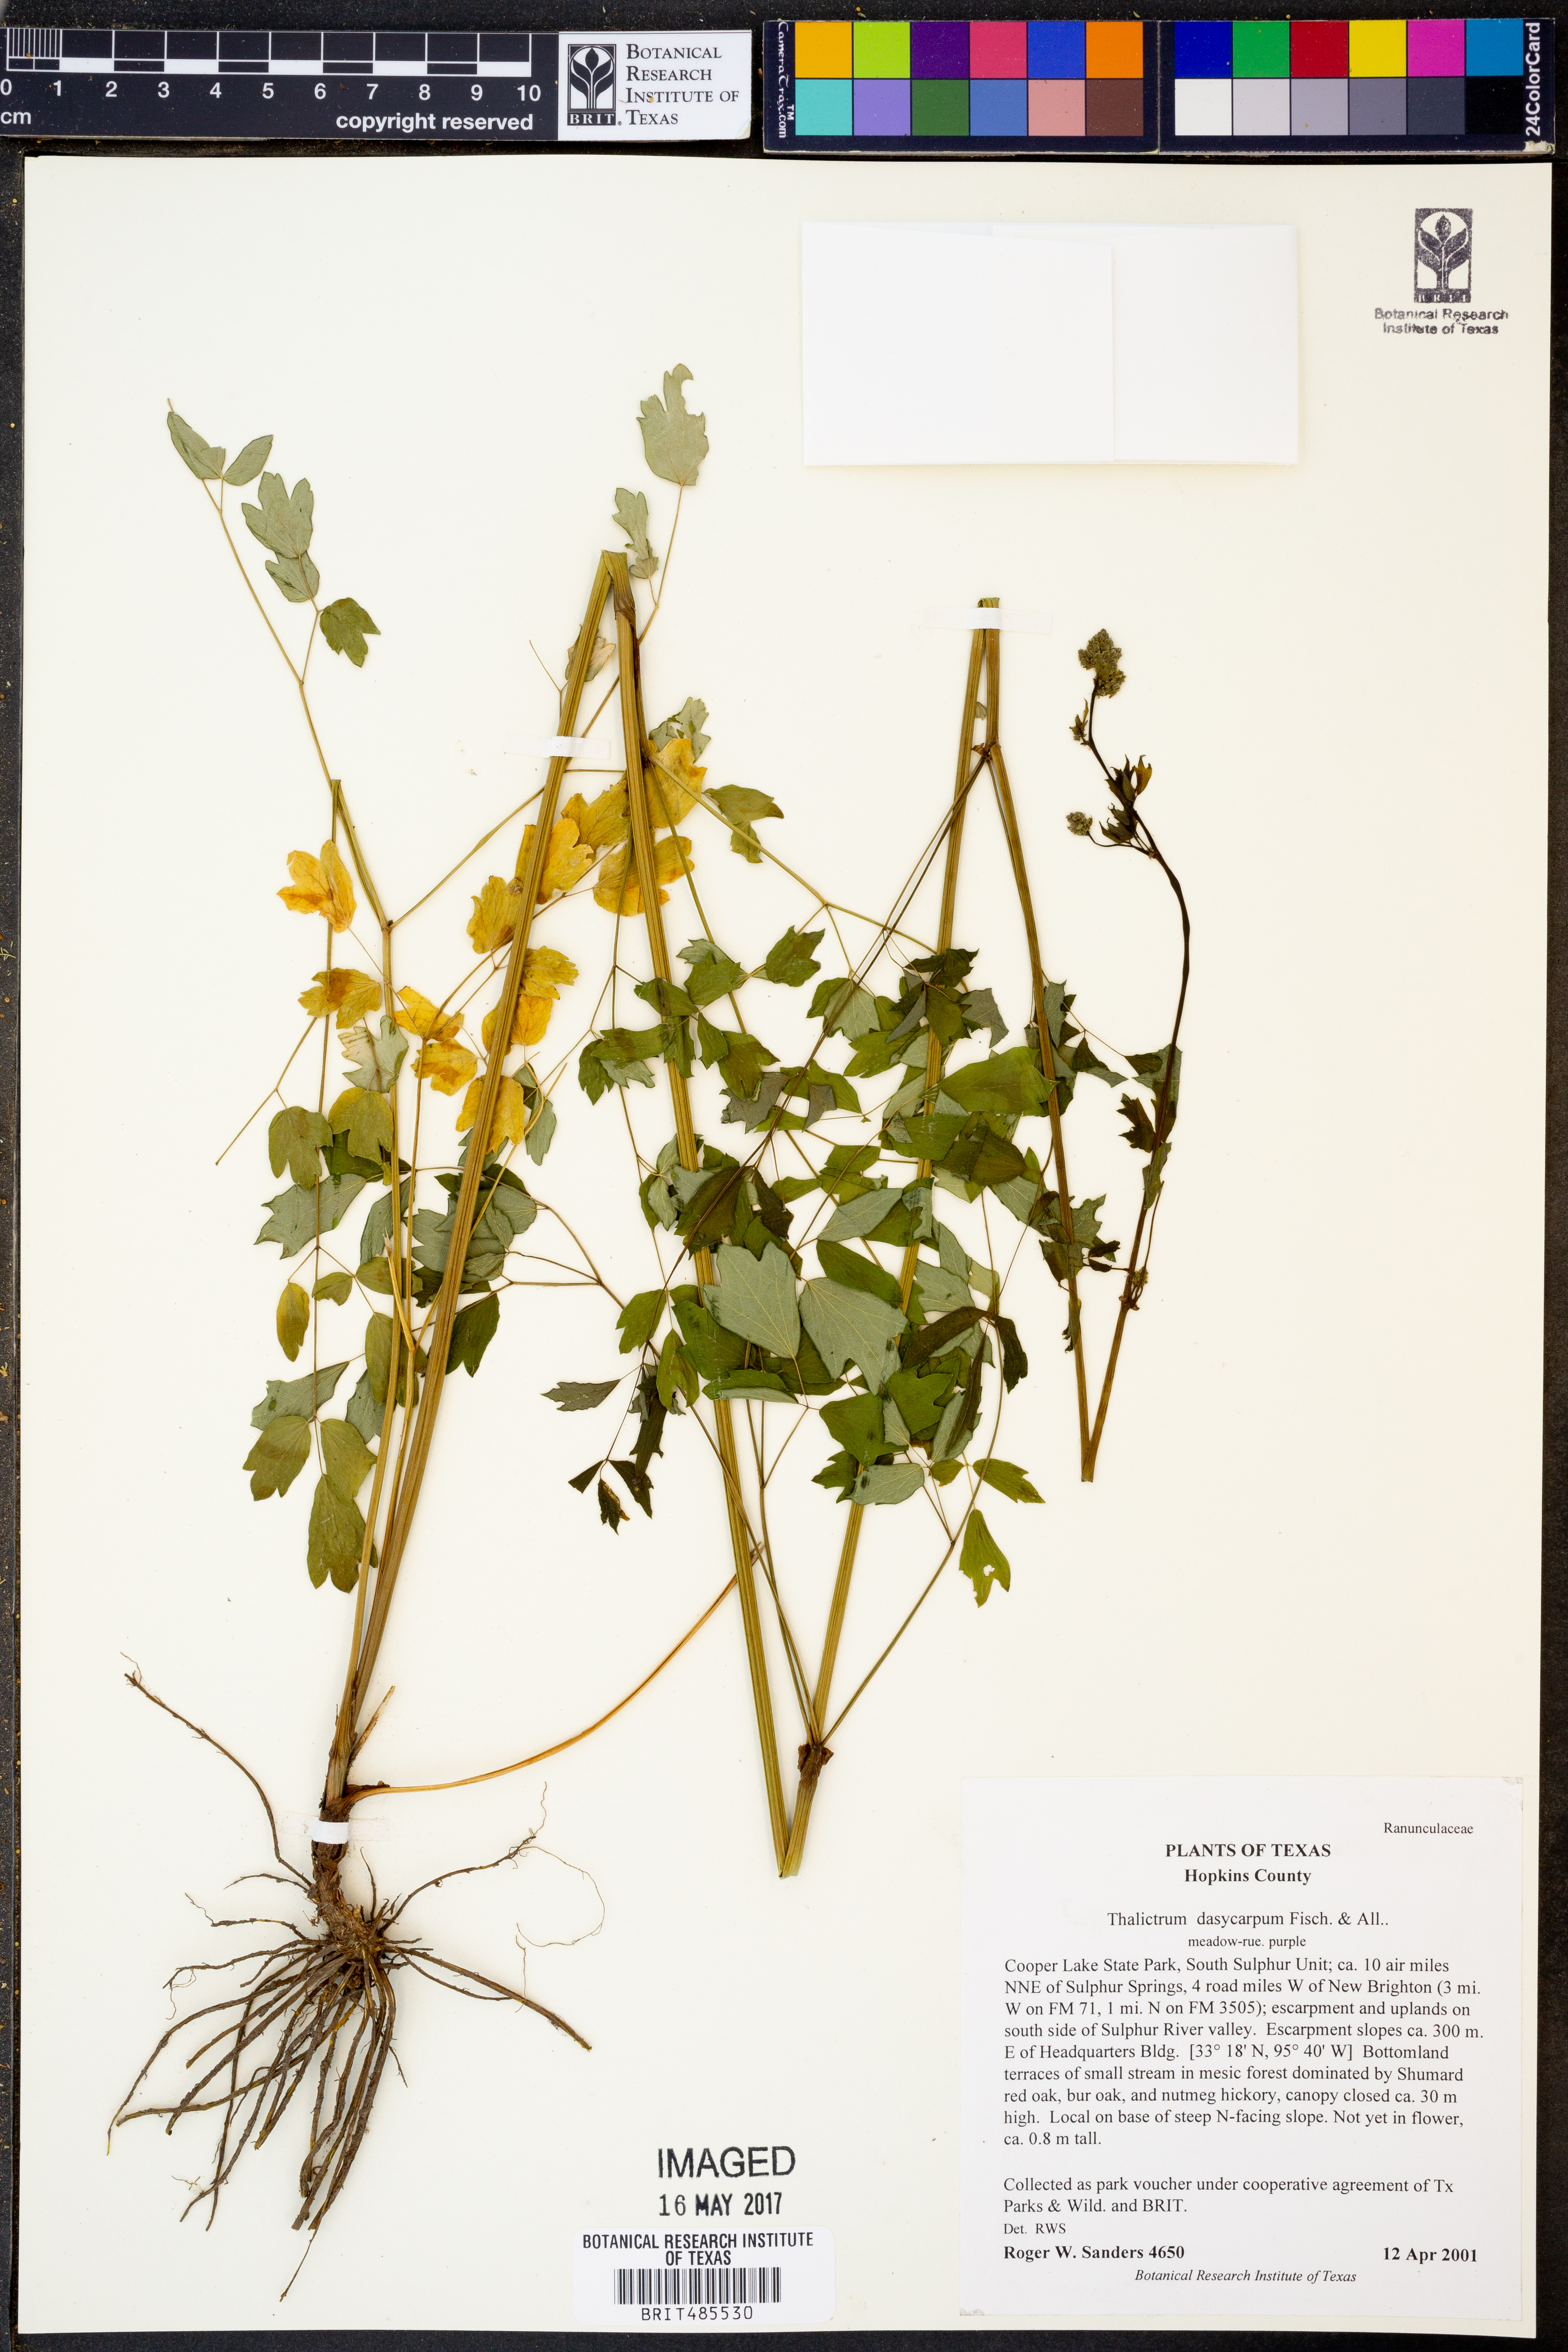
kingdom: Plantae
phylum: Tracheophyta
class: Magnoliopsida
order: Ranunculales
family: Ranunculaceae
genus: Thalictrum
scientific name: Thalictrum dasycarpum
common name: Purple meadow-rue
